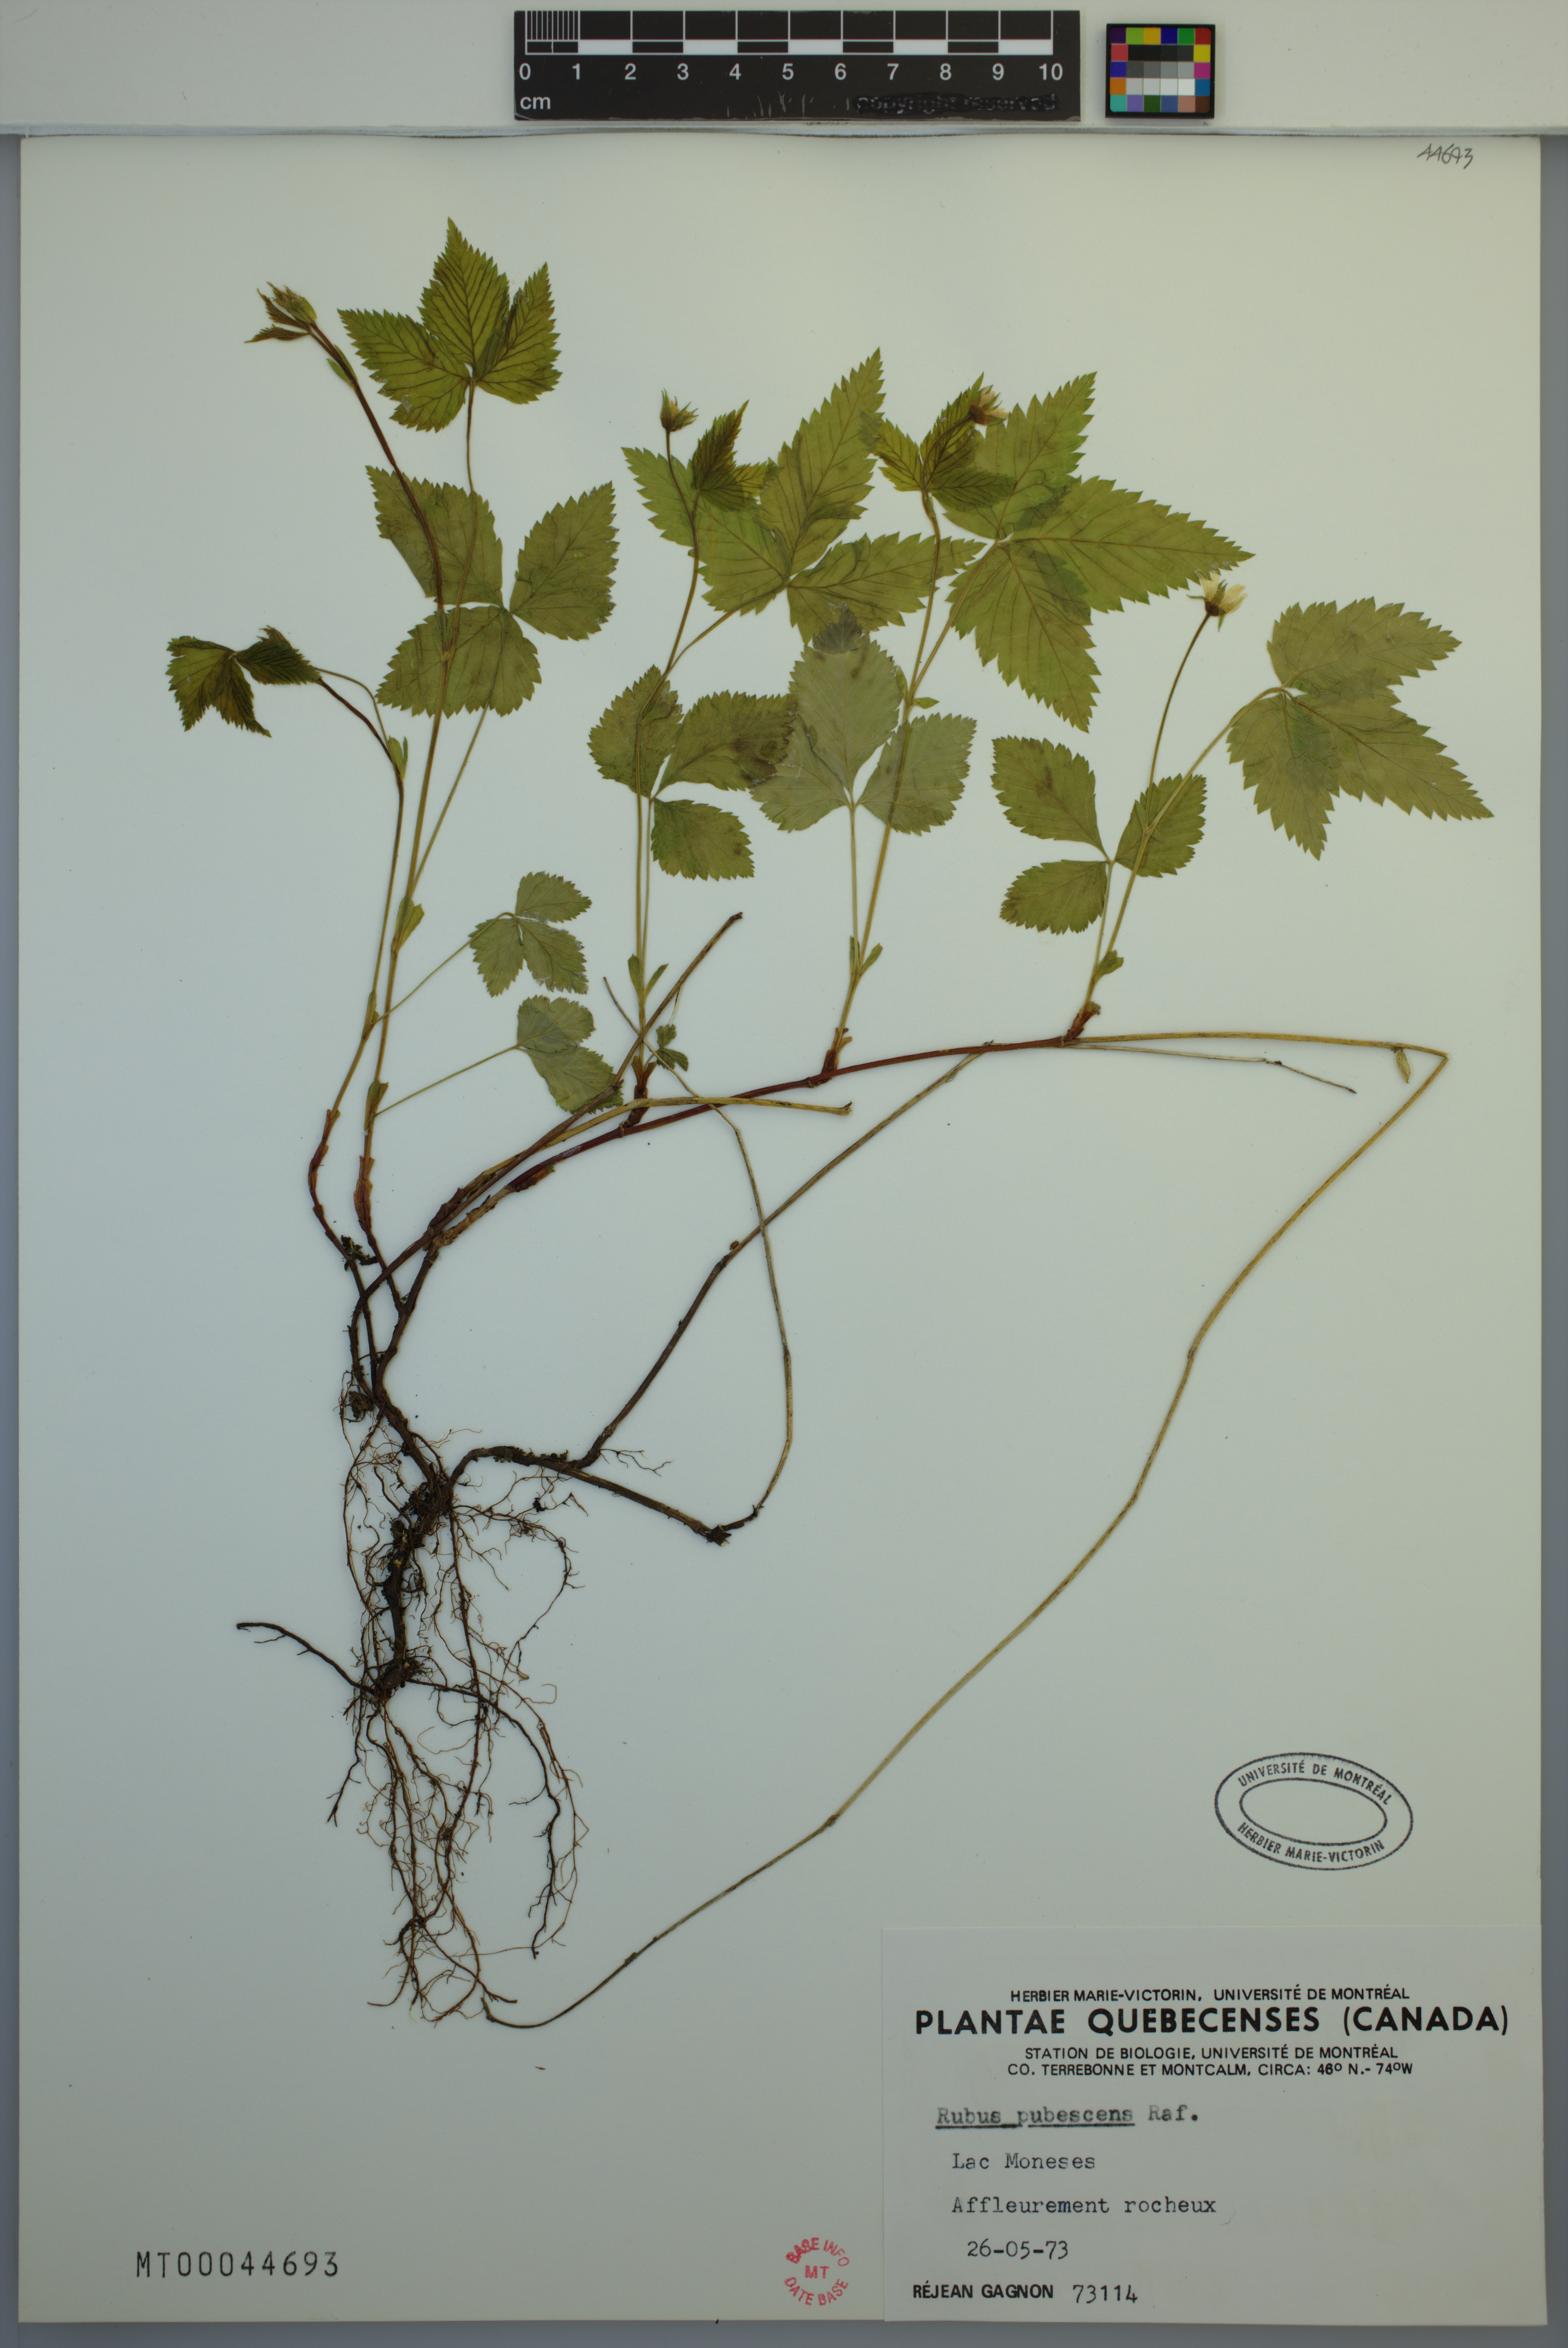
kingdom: Plantae
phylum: Tracheophyta
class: Magnoliopsida
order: Rosales
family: Rosaceae
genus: Rubus
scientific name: Rubus pubescens
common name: Dwarf raspberry
